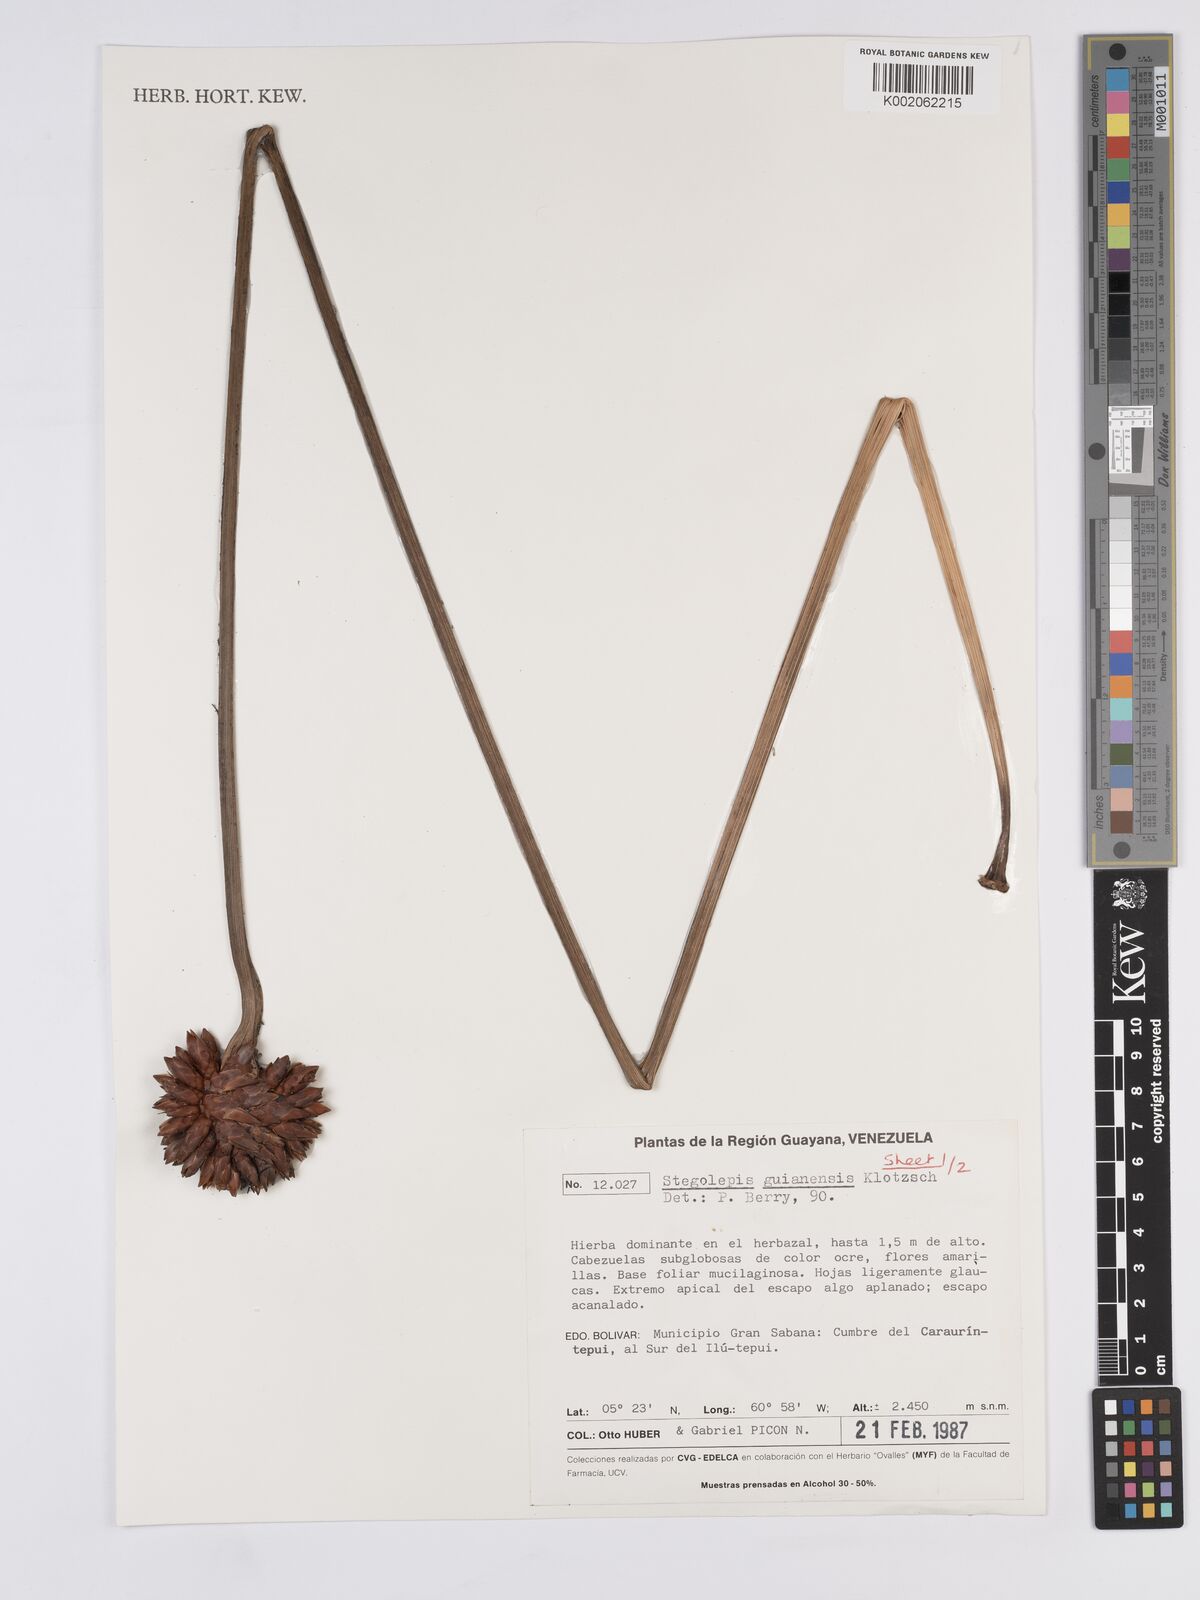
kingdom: Plantae
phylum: Tracheophyta
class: Liliopsida
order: Poales
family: Rapateaceae
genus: Stegolepis
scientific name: Stegolepis guianensis
